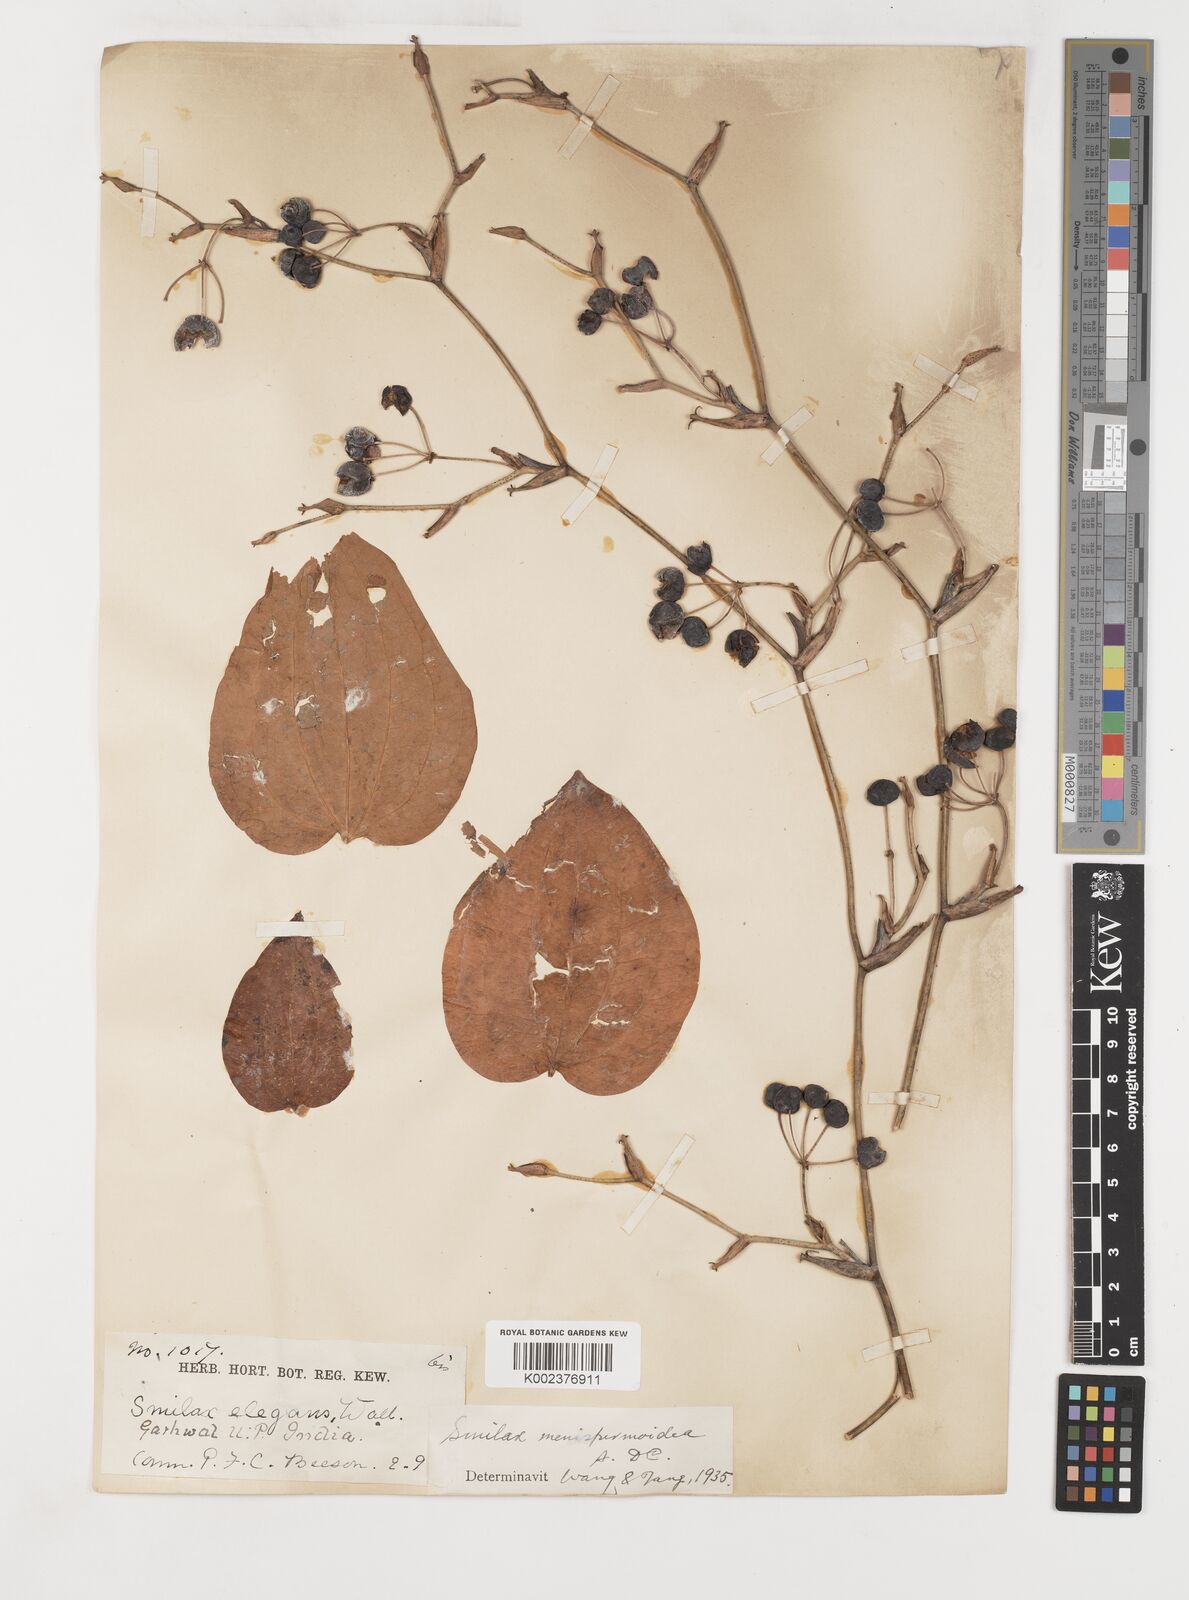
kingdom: Plantae
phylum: Tracheophyta
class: Liliopsida
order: Liliales
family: Smilacaceae
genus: Smilax
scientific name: Smilax menispermoidea
